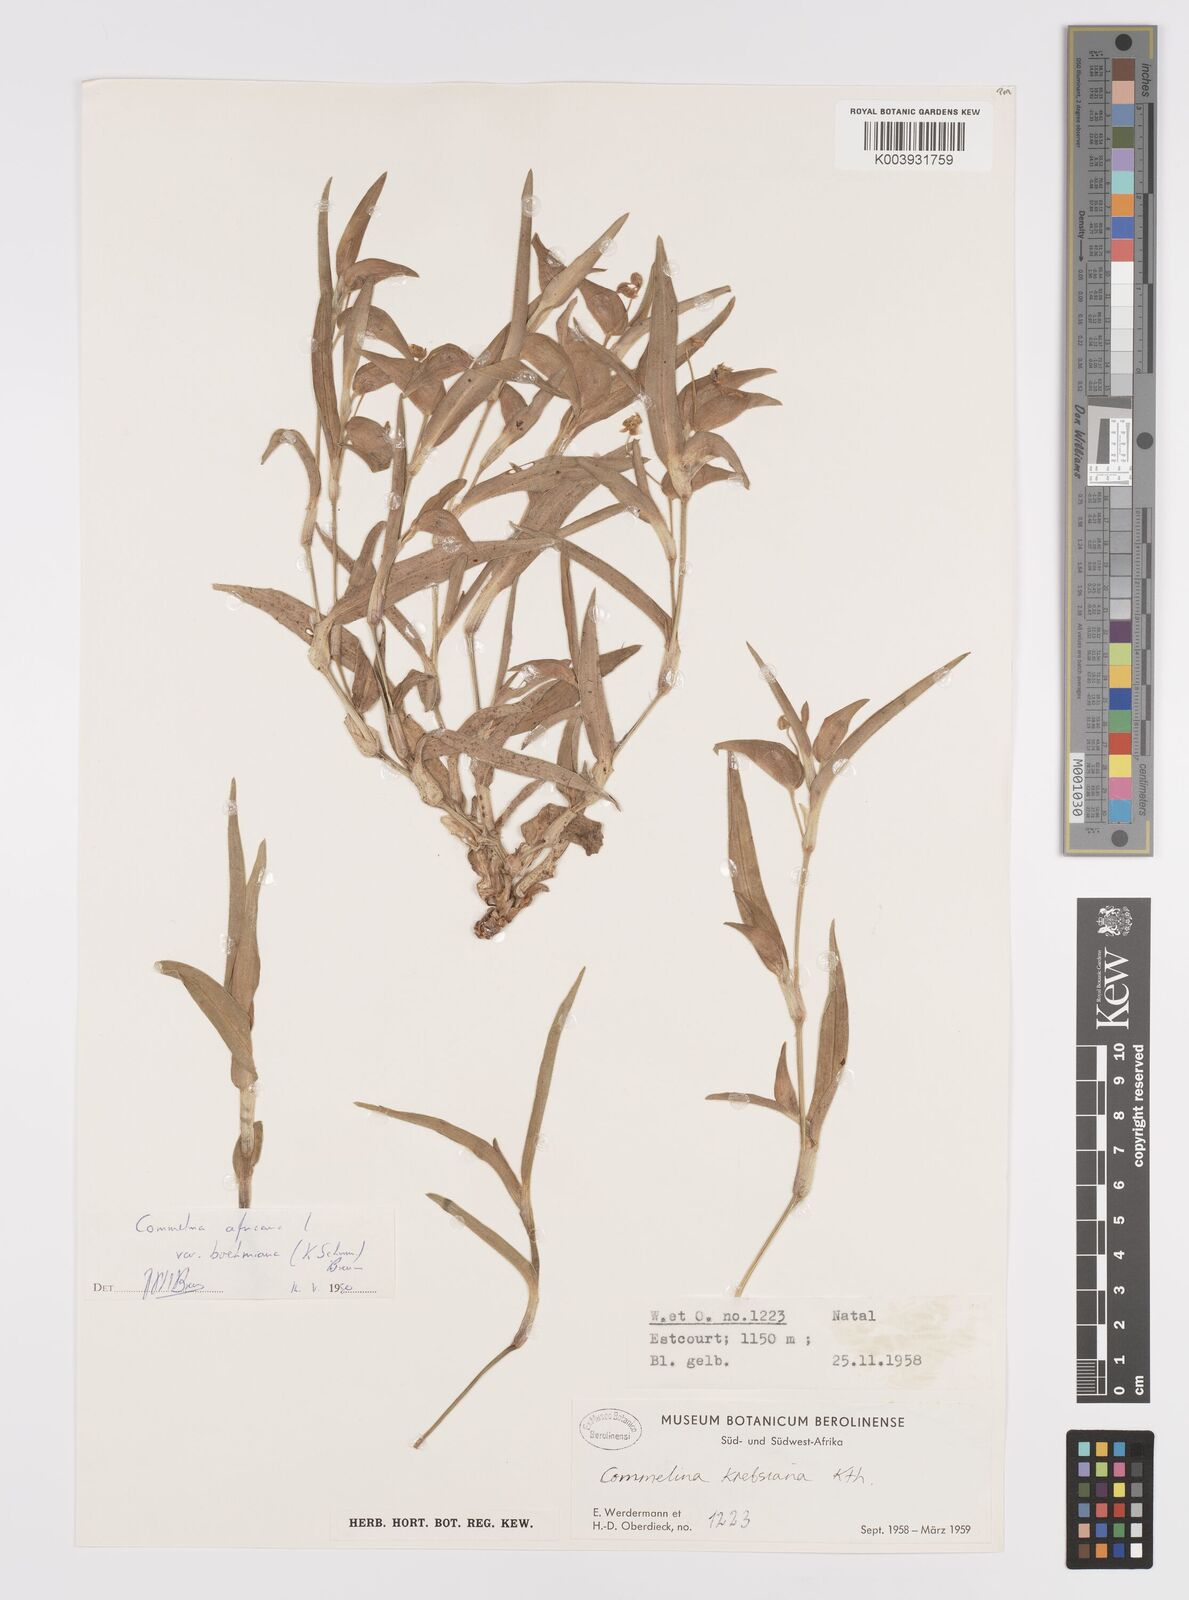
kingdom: Plantae
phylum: Tracheophyta
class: Liliopsida
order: Commelinales
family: Commelinaceae
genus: Commelina
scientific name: Commelina africana
